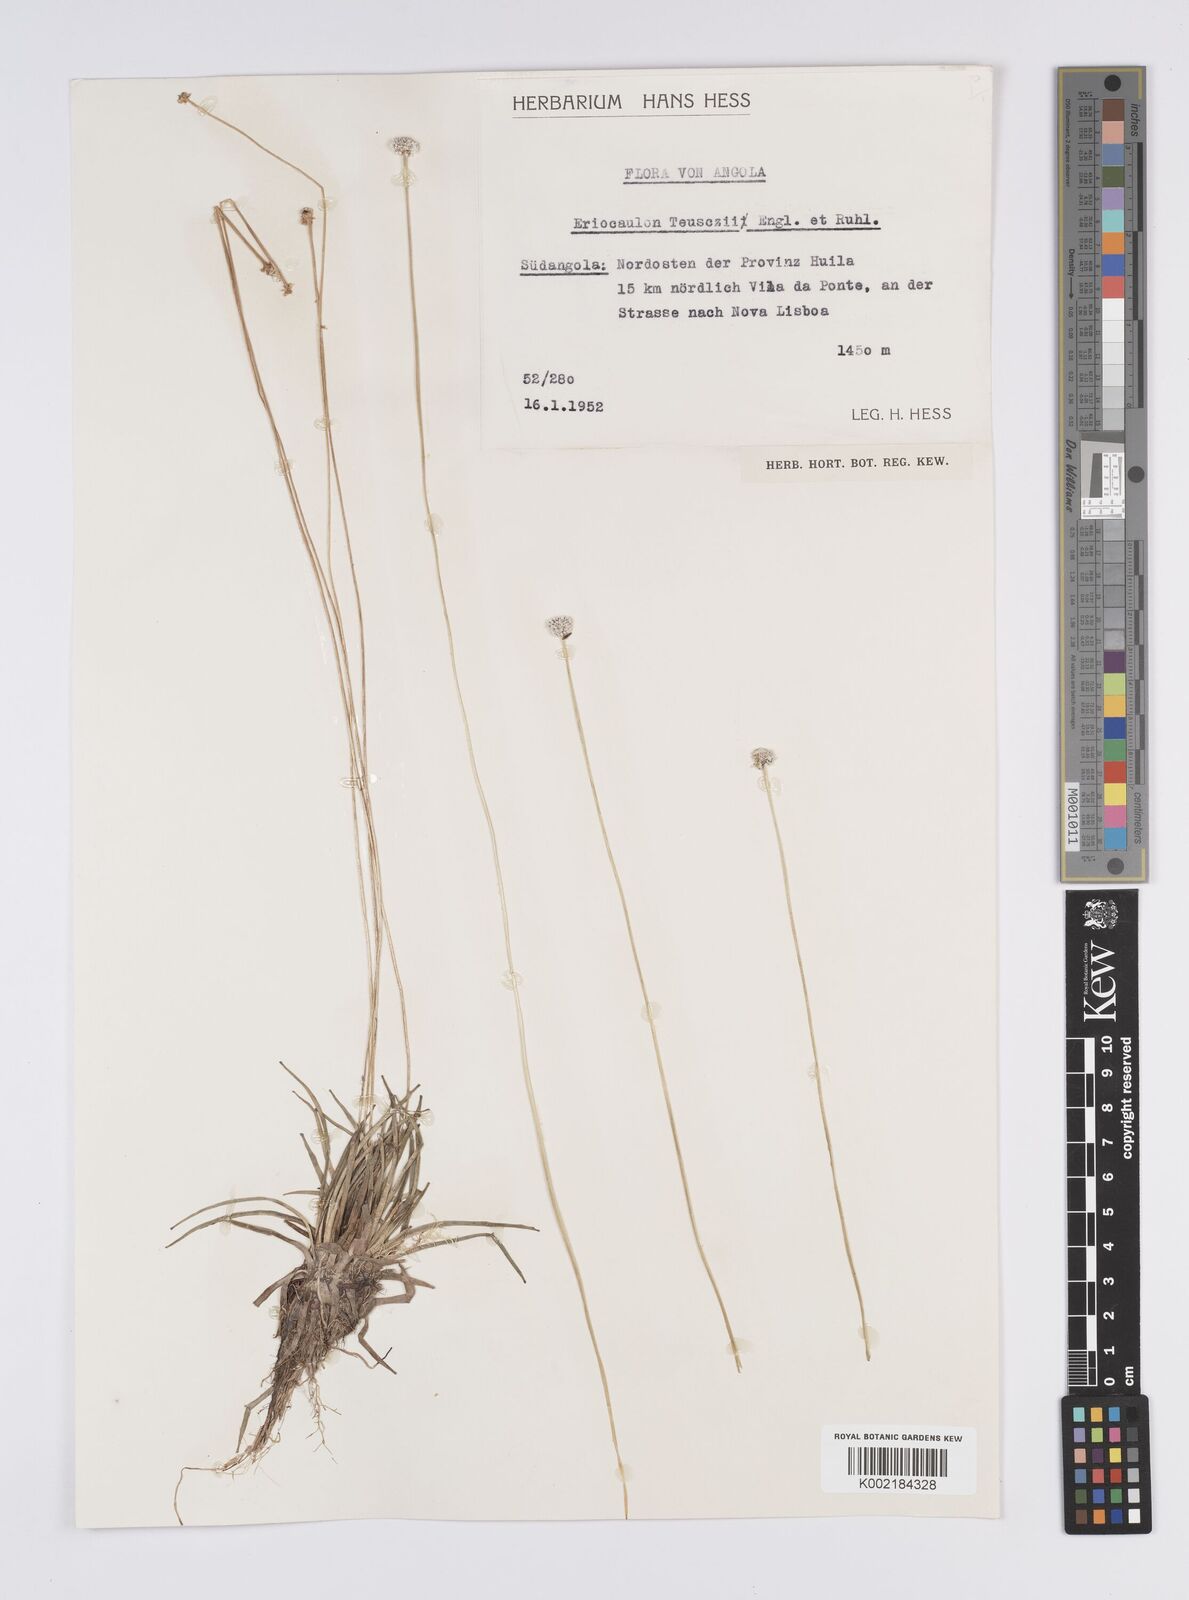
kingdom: Plantae
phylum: Tracheophyta
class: Liliopsida
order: Poales
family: Eriocaulaceae
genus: Eriocaulon
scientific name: Eriocaulon teusczii
